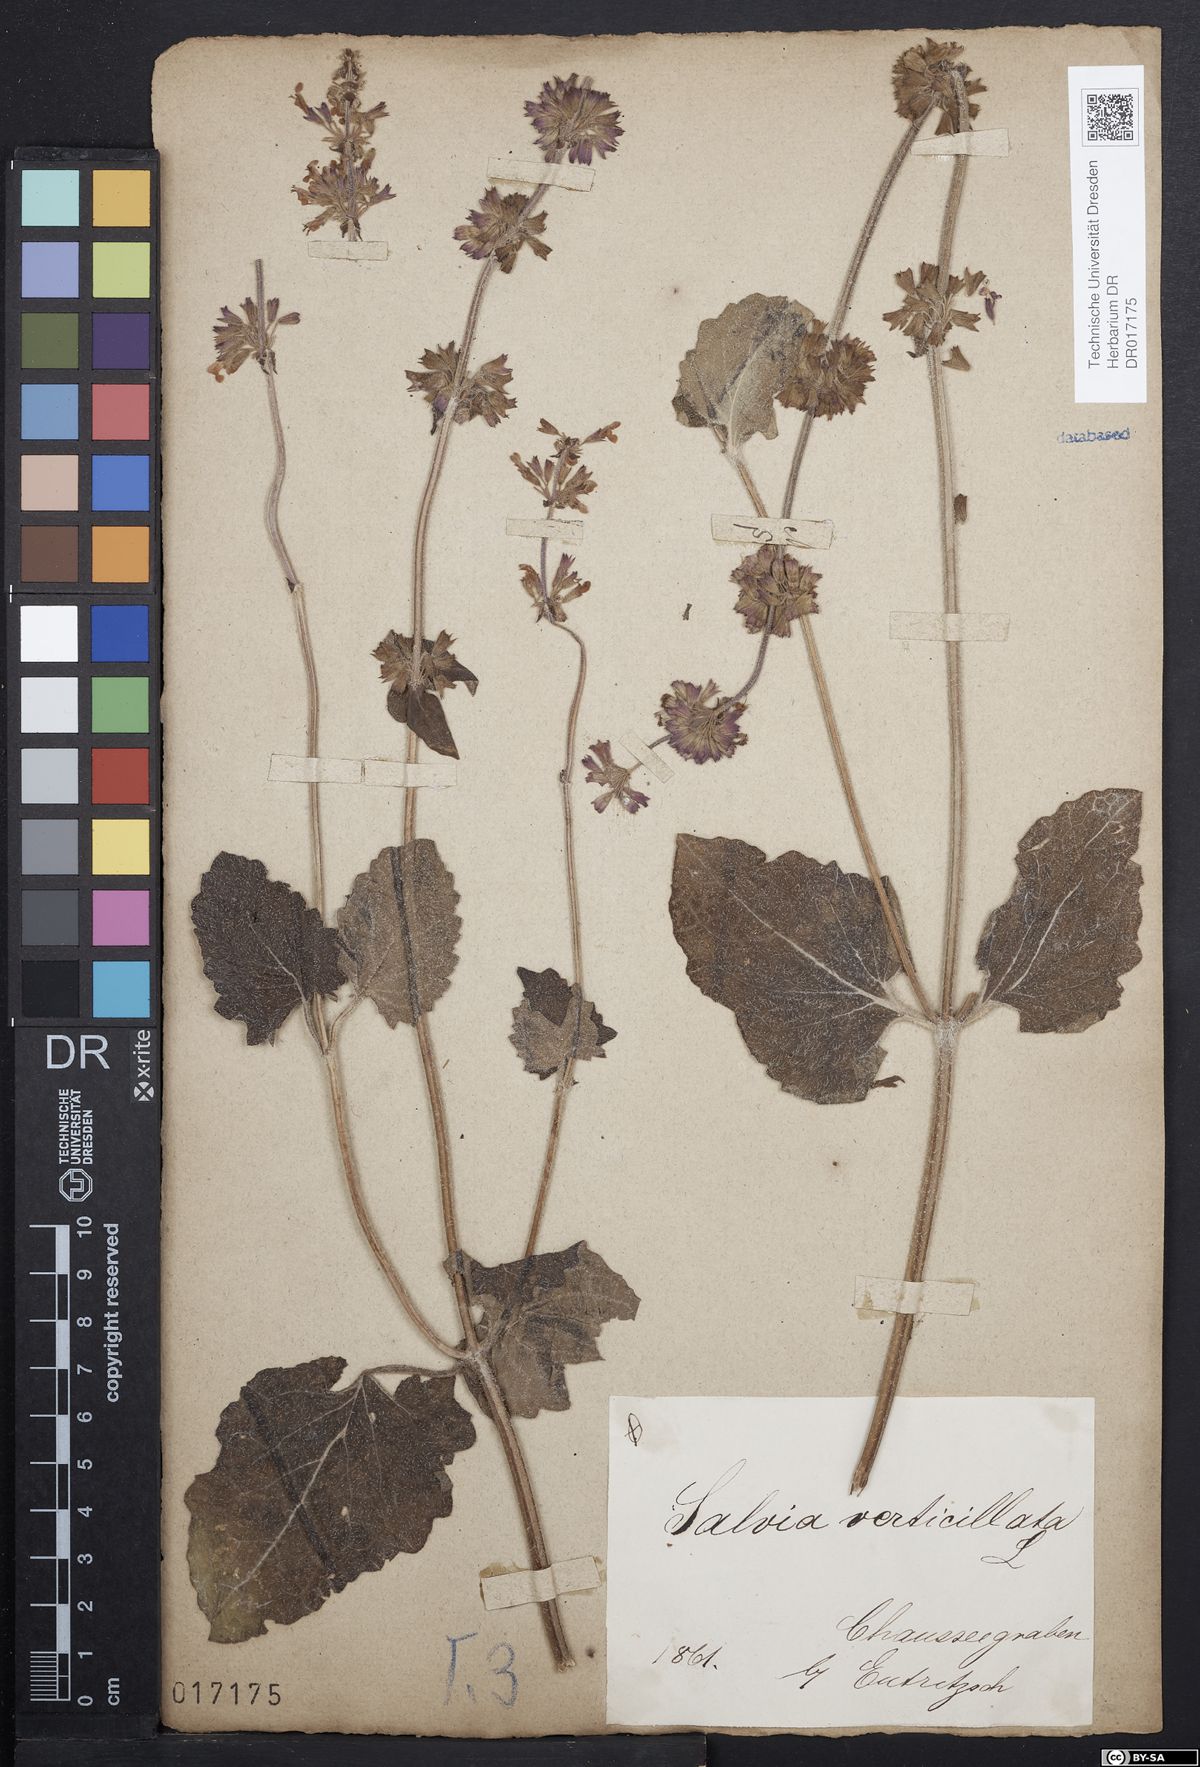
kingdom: Plantae
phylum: Tracheophyta
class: Magnoliopsida
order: Lamiales
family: Lamiaceae
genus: Salvia
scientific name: Salvia verticillata
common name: Whorled clary
